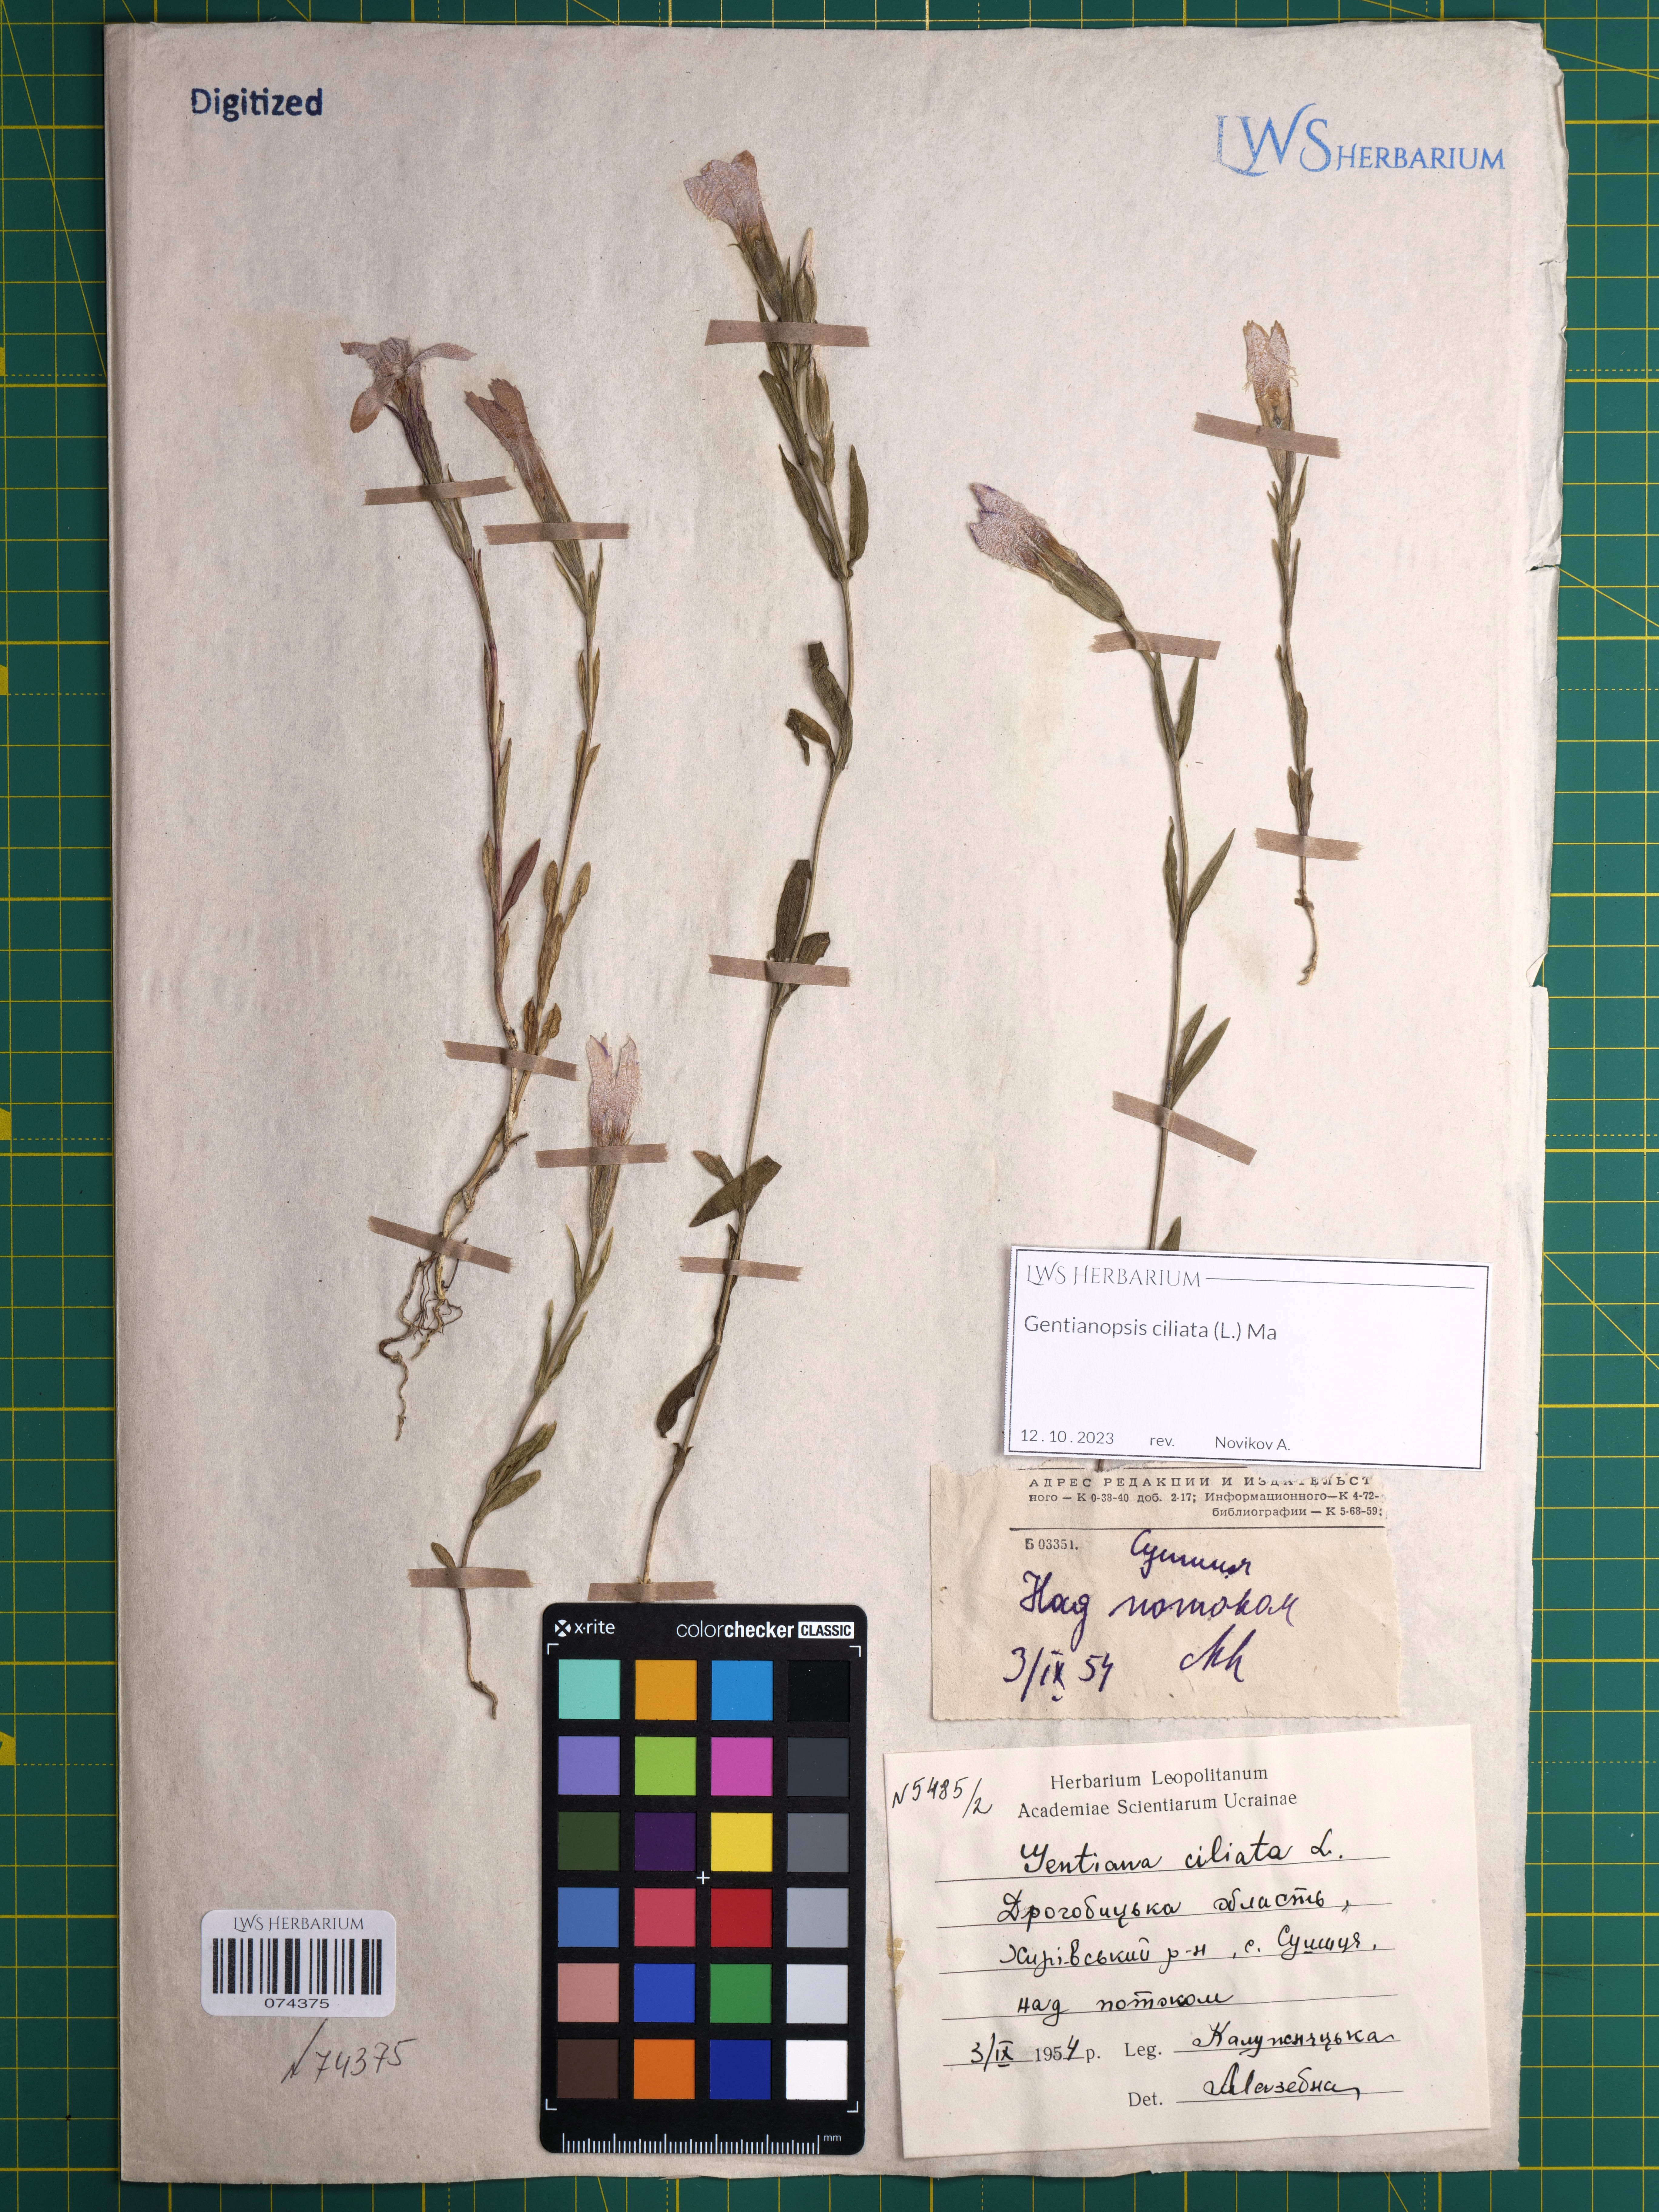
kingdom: Plantae
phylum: Tracheophyta
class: Magnoliopsida
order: Gentianales
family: Gentianaceae
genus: Gentianopsis
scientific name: Gentianopsis ciliata
